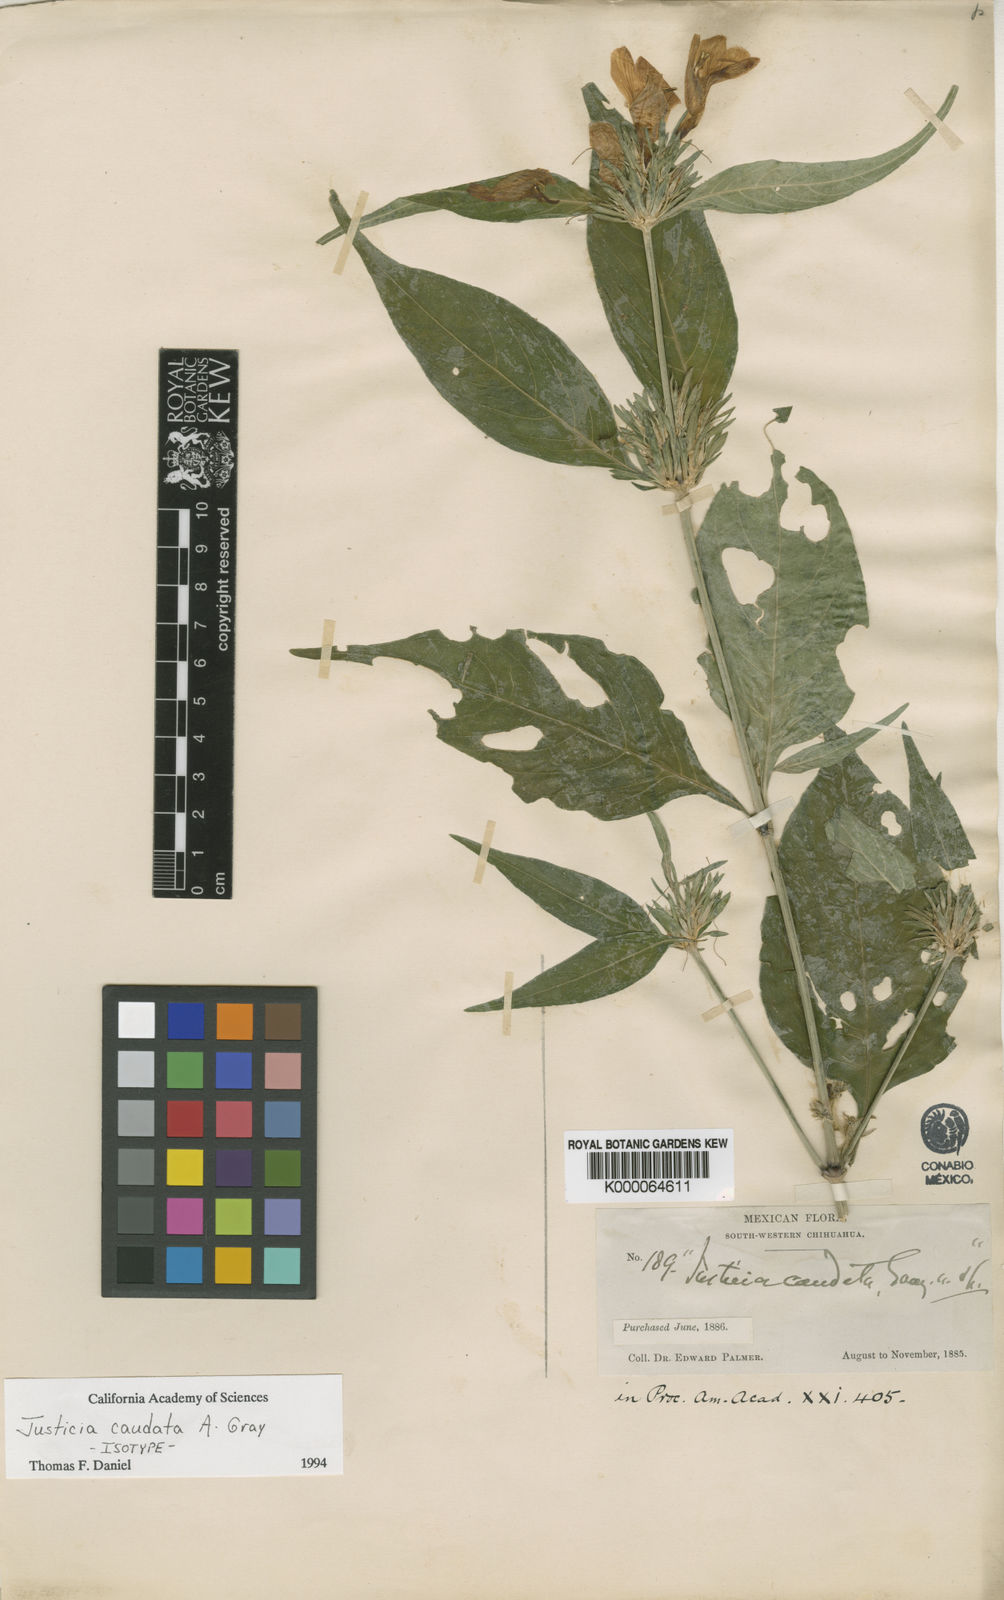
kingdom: Plantae
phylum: Tracheophyta
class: Magnoliopsida
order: Lamiales
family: Acanthaceae
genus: Justicia
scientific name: Justicia pacifica
